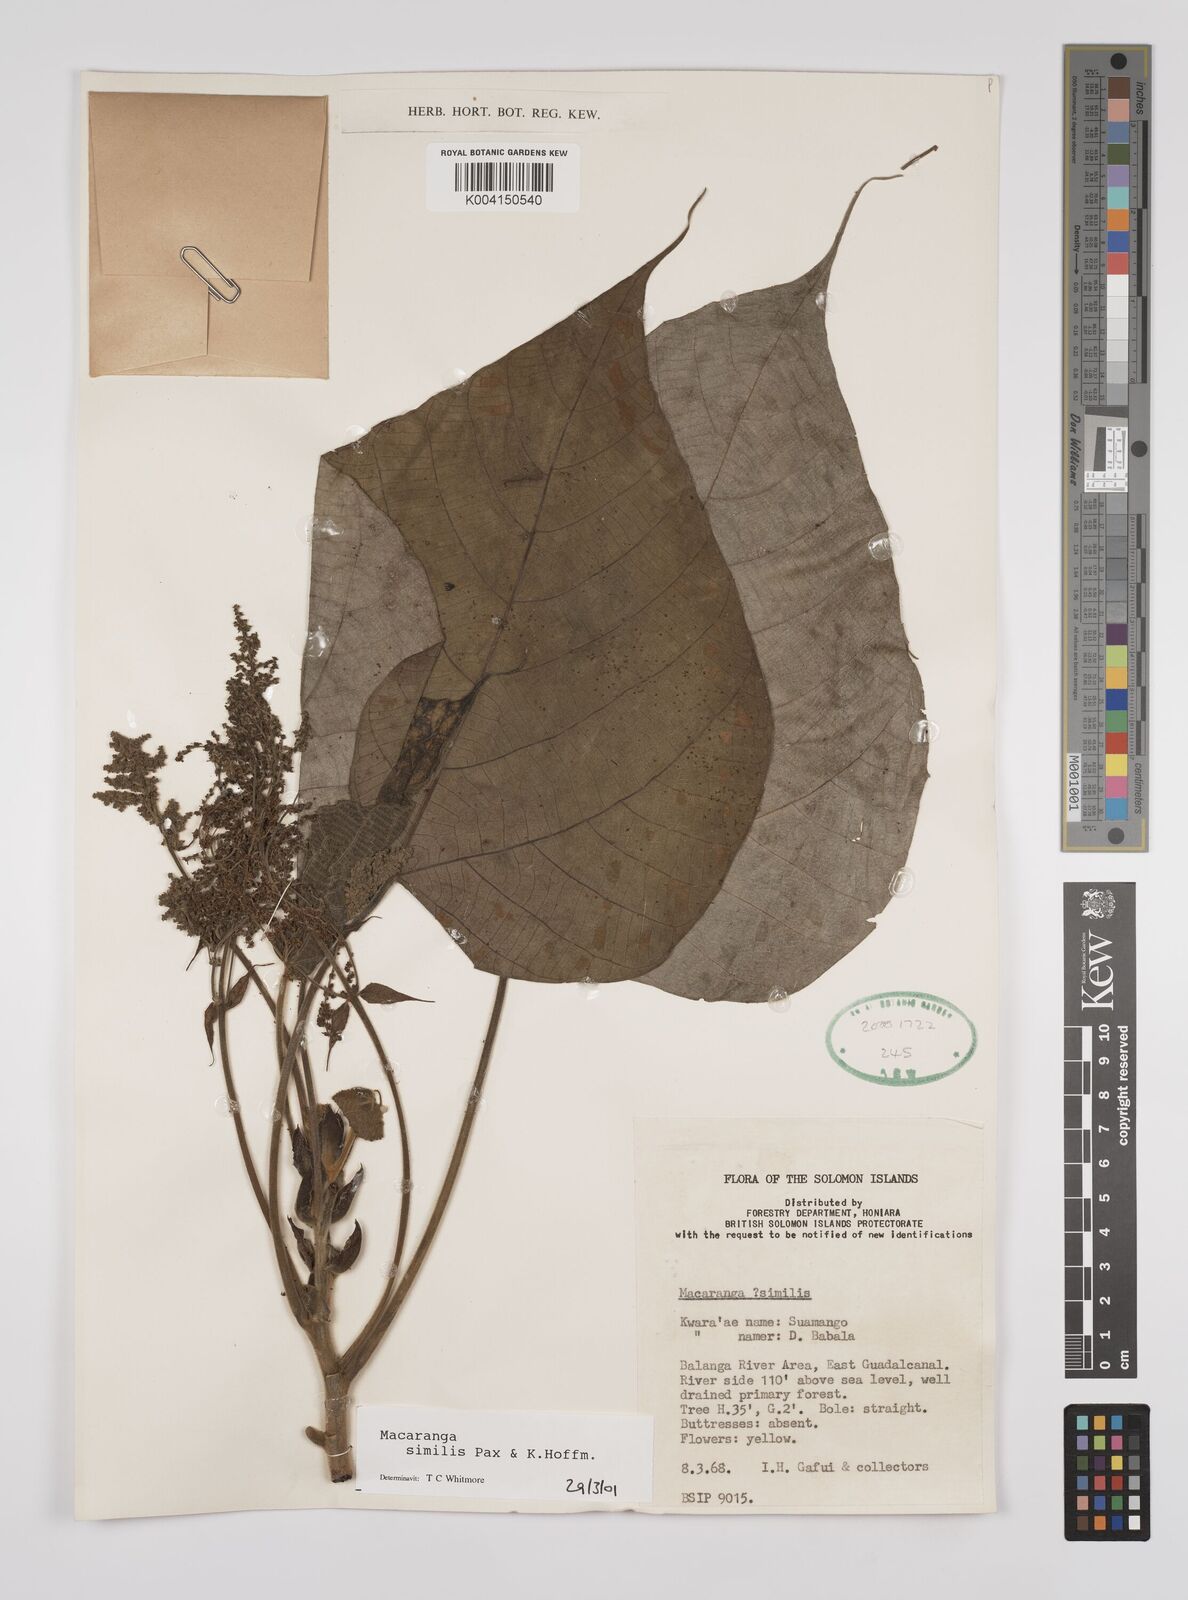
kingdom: Plantae
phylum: Tracheophyta
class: Magnoliopsida
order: Malpighiales
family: Euphorbiaceae
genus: Macaranga
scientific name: Macaranga similis
